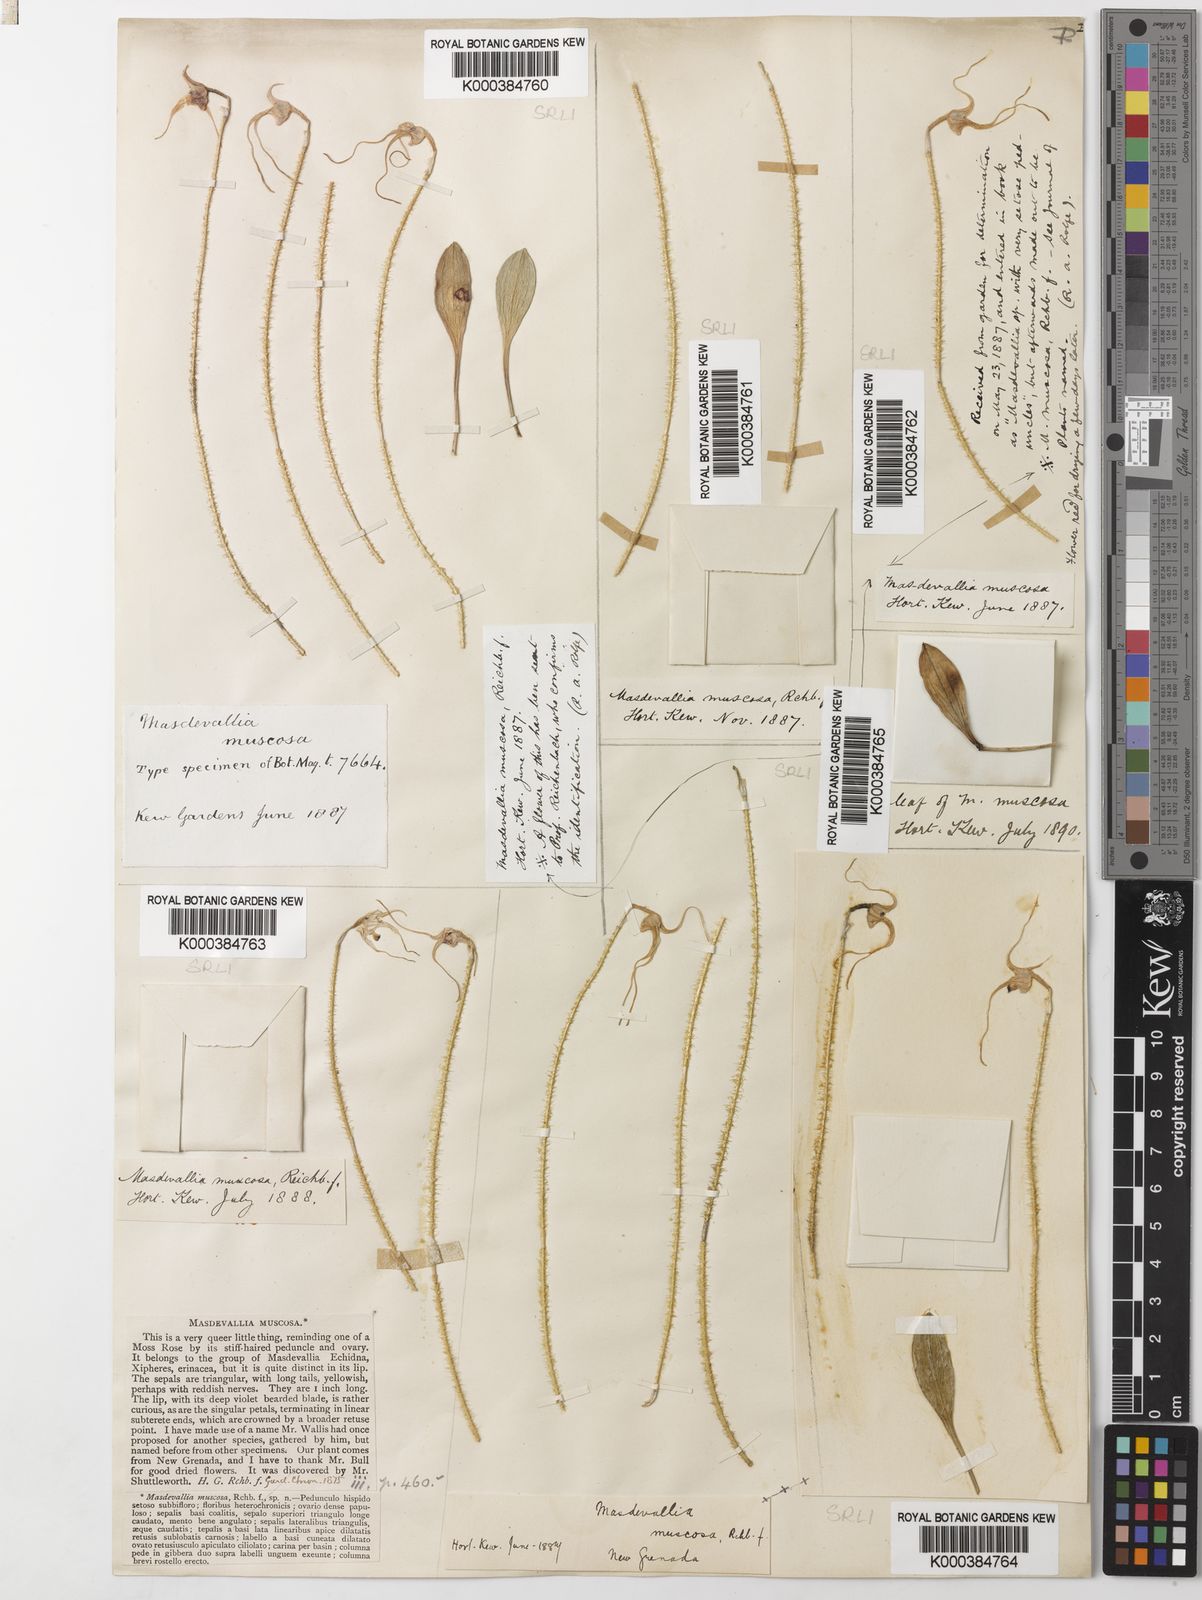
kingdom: Plantae
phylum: Tracheophyta
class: Liliopsida
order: Asparagales
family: Orchidaceae
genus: Porroglossum
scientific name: Porroglossum muscosum
